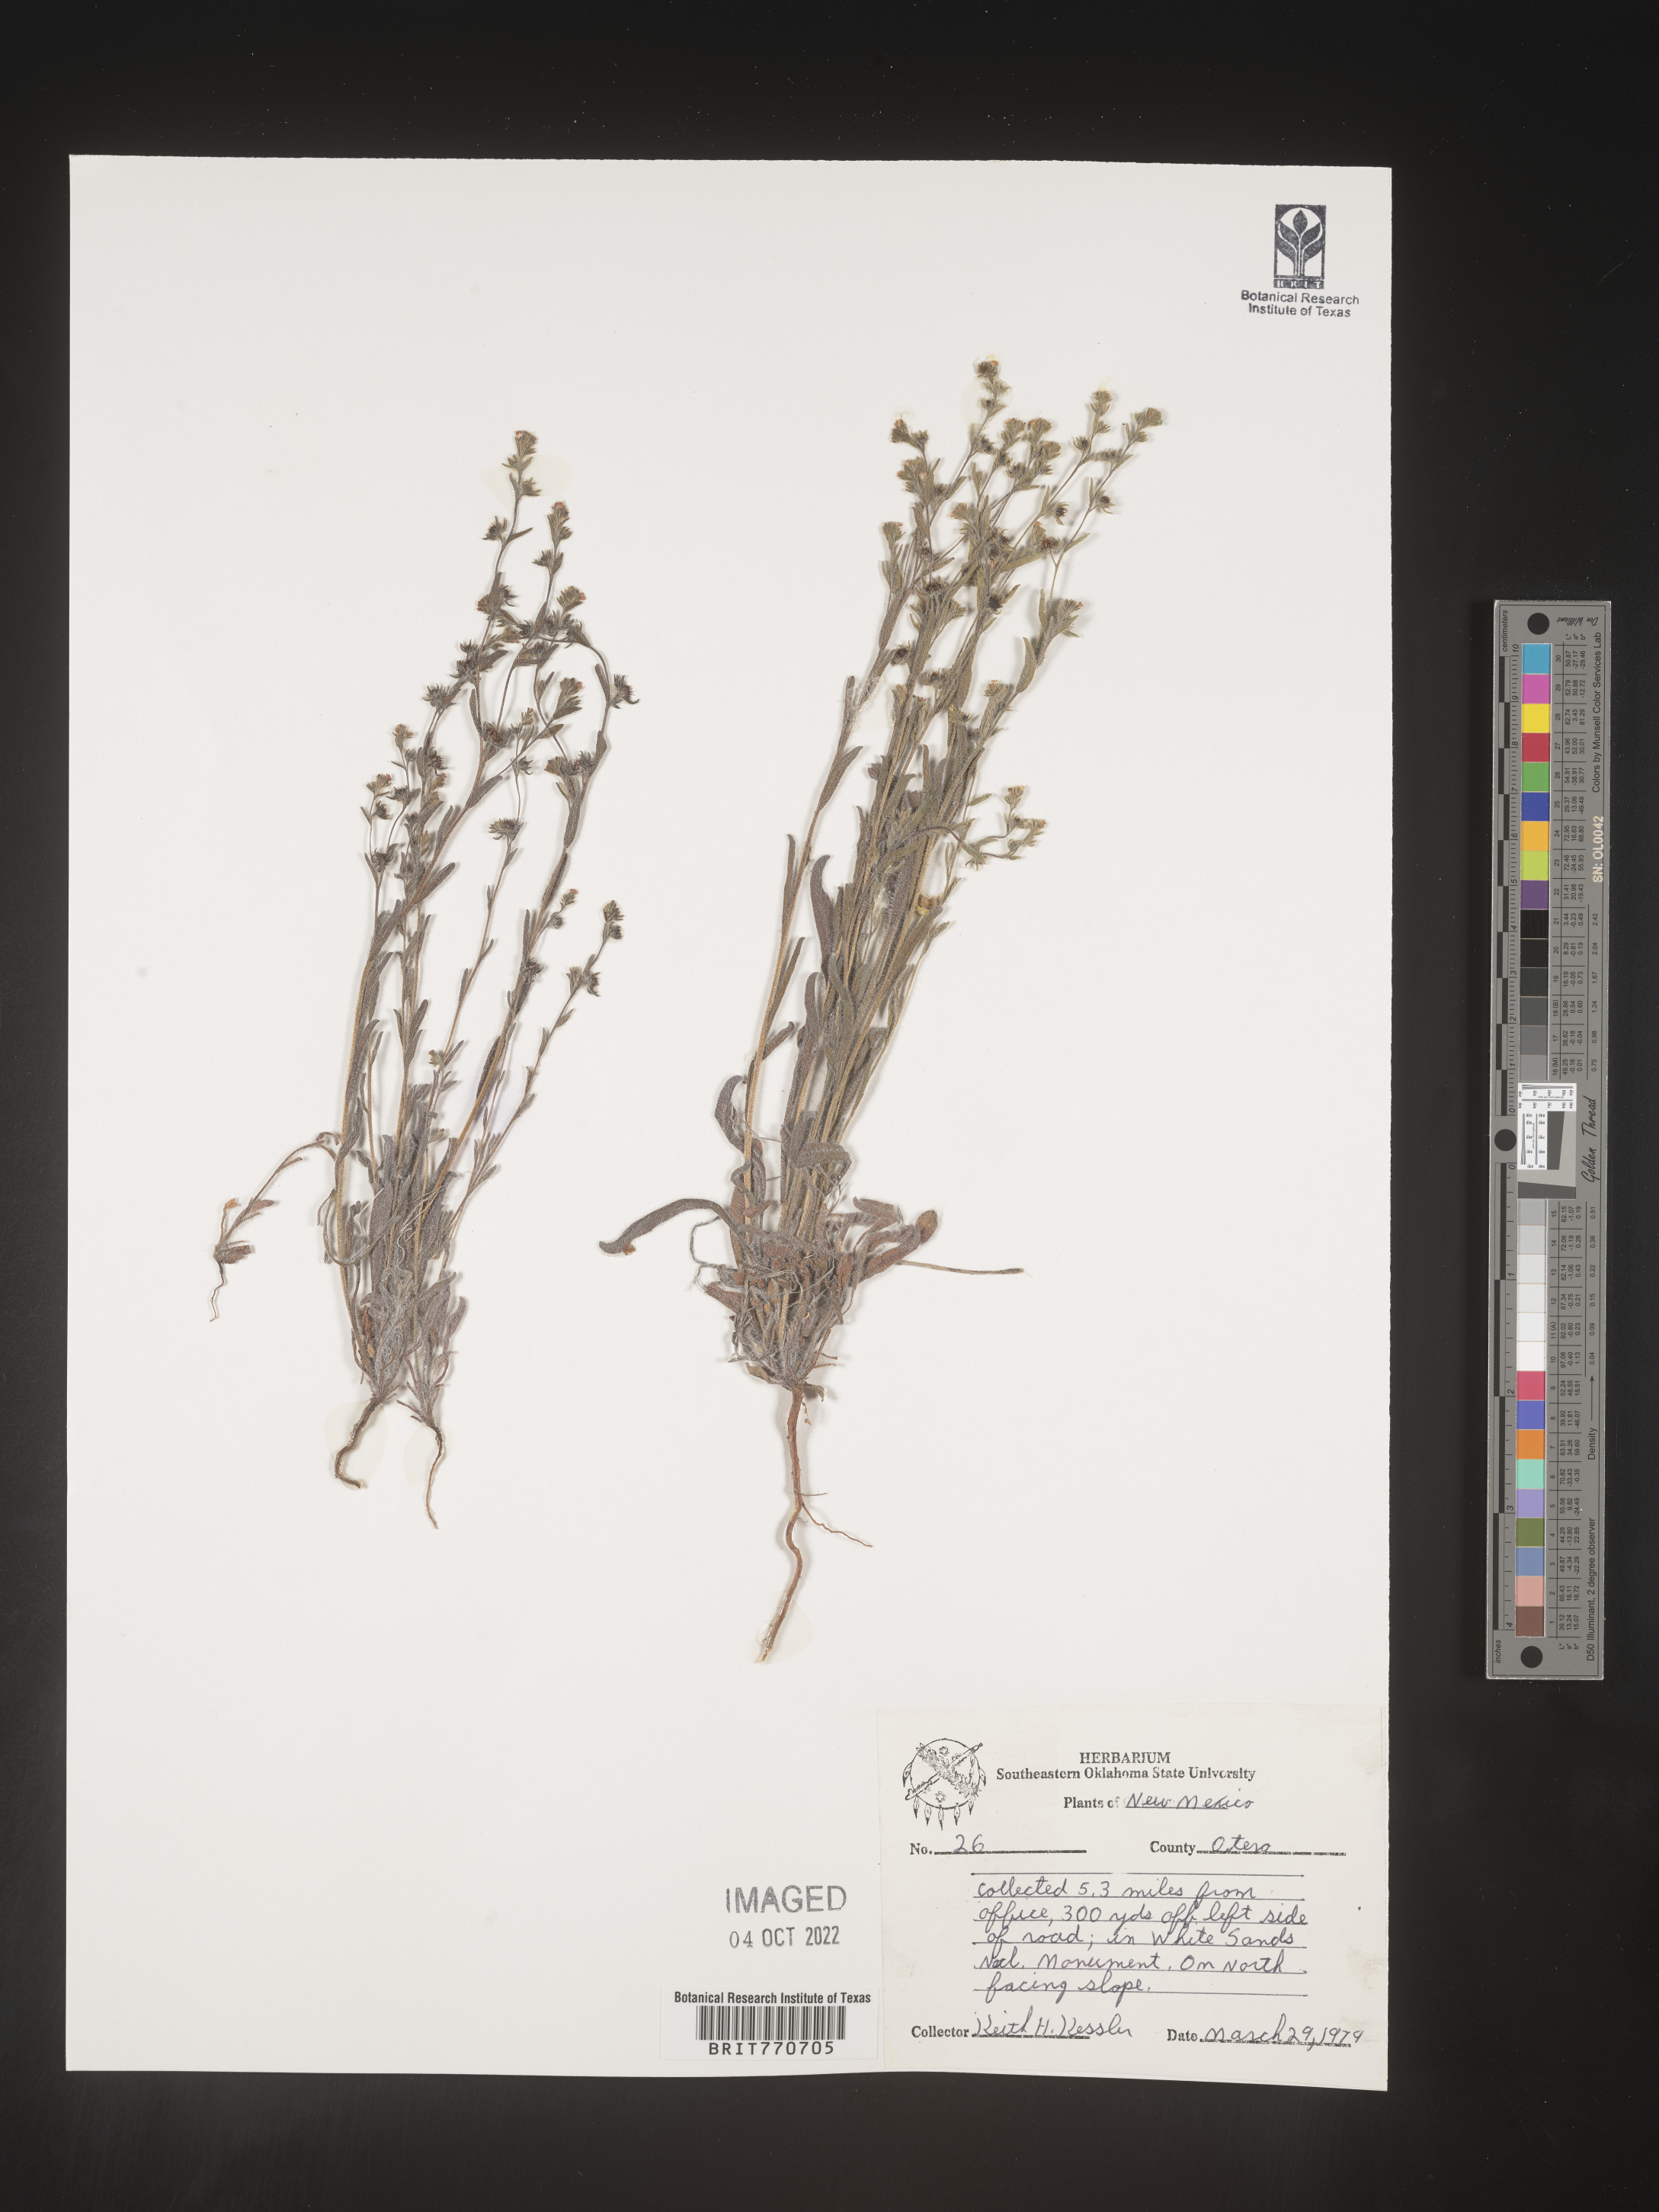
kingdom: Plantae
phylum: Tracheophyta
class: Magnoliopsida
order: Boraginales
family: Boraginaceae
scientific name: Boraginaceae
